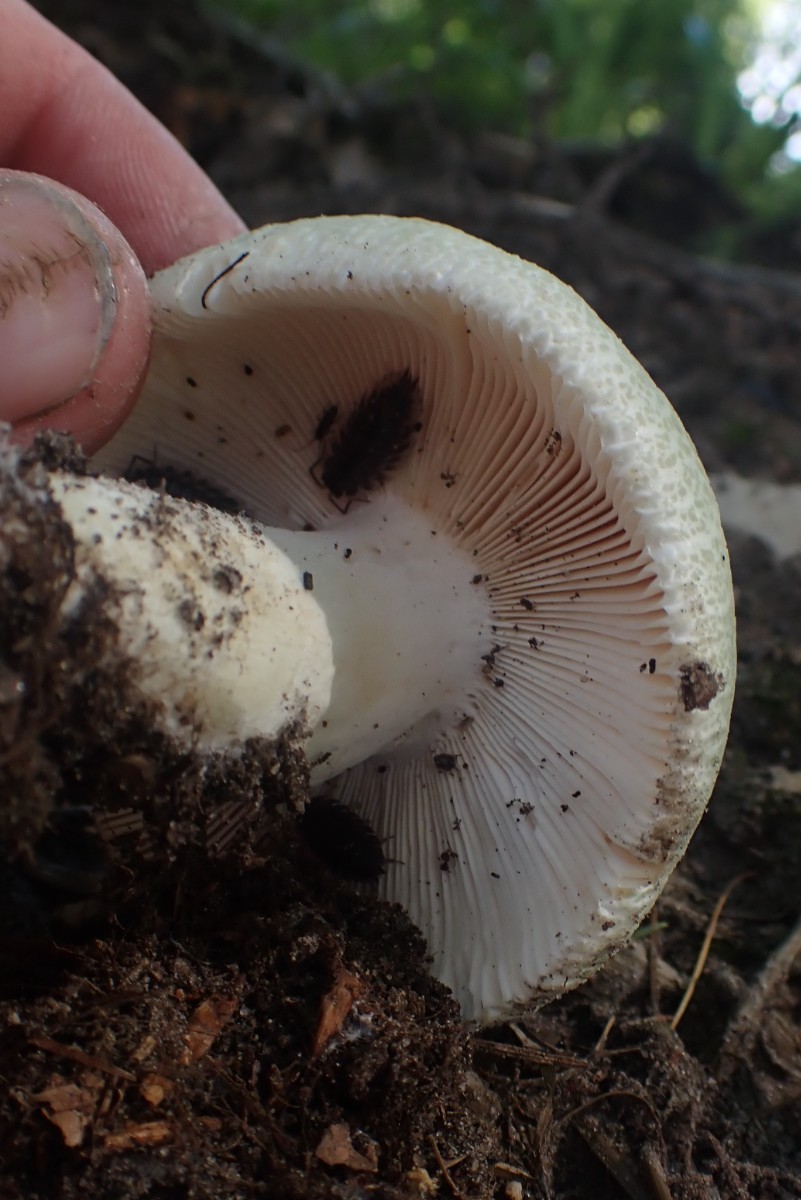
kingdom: Fungi
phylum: Basidiomycota
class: Agaricomycetes
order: Russulales
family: Russulaceae
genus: Russula
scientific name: Russula virescens
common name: spanskgrøn skørhat
